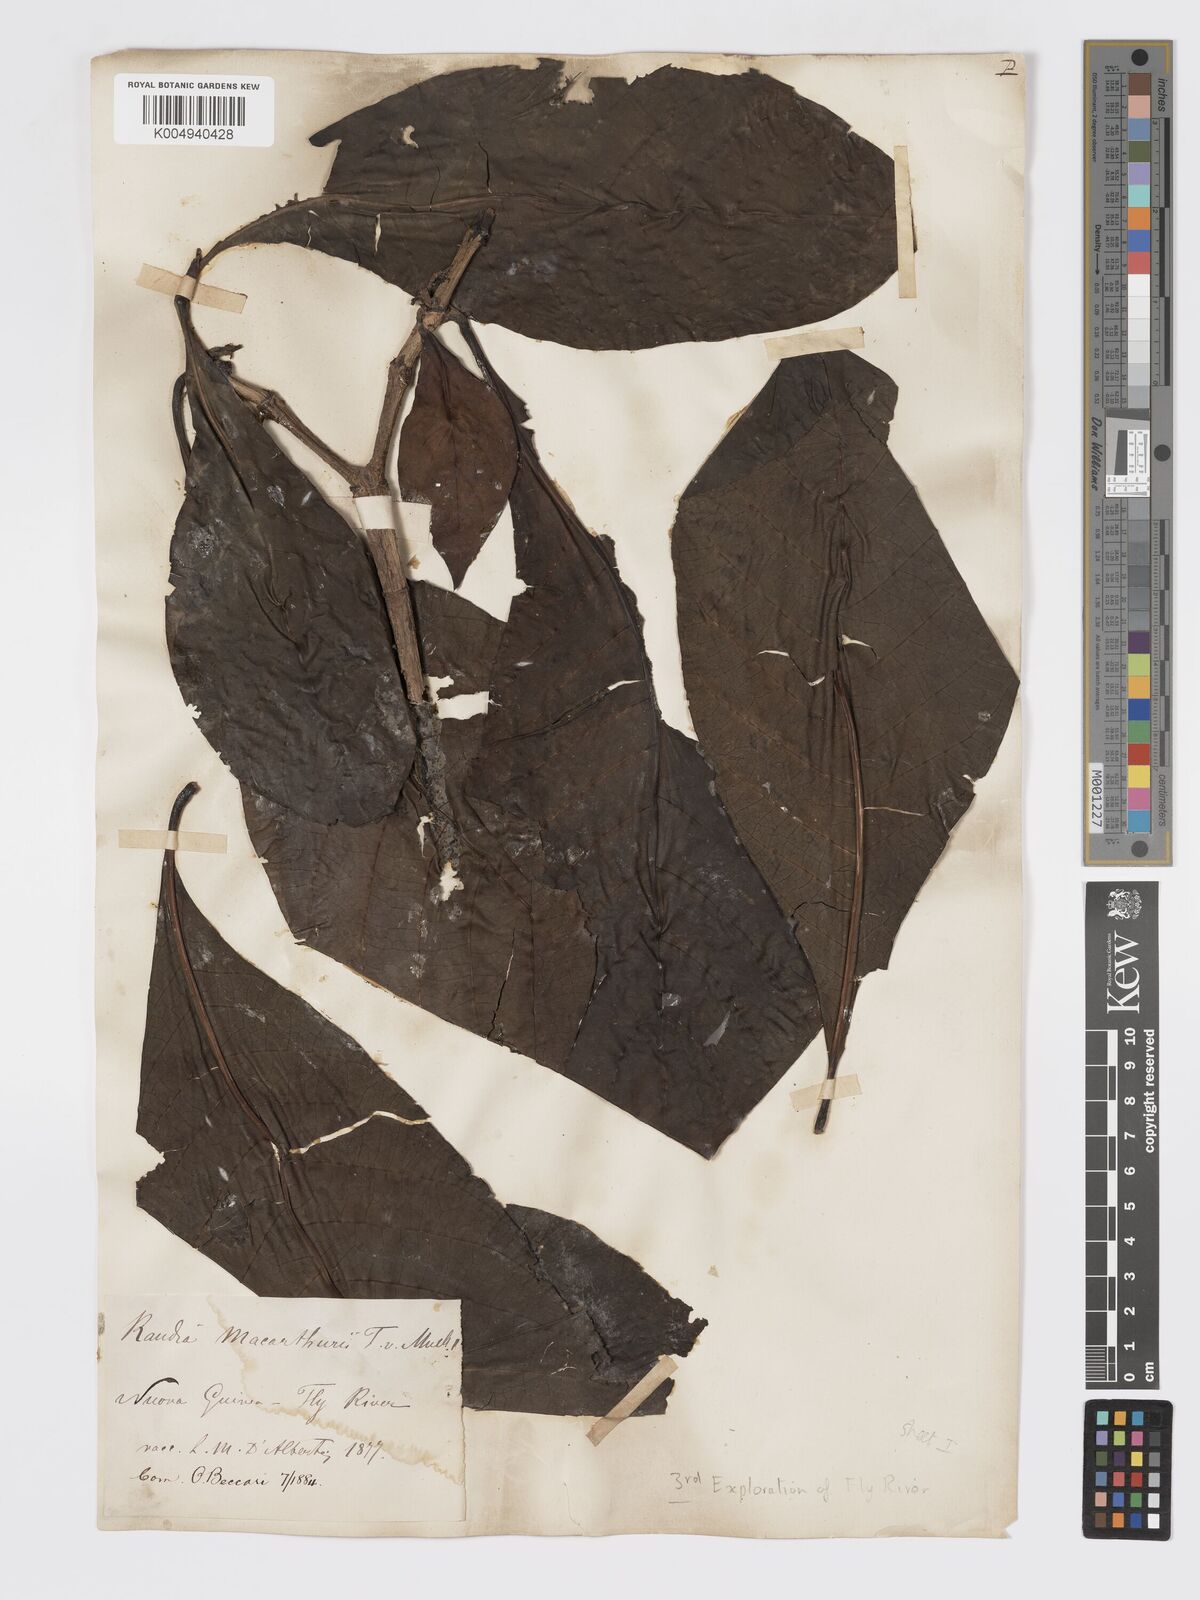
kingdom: Plantae
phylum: Tracheophyta
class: Magnoliopsida
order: Gentianales
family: Rubiaceae
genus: Atractocarpus
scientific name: Atractocarpus macarthurii
